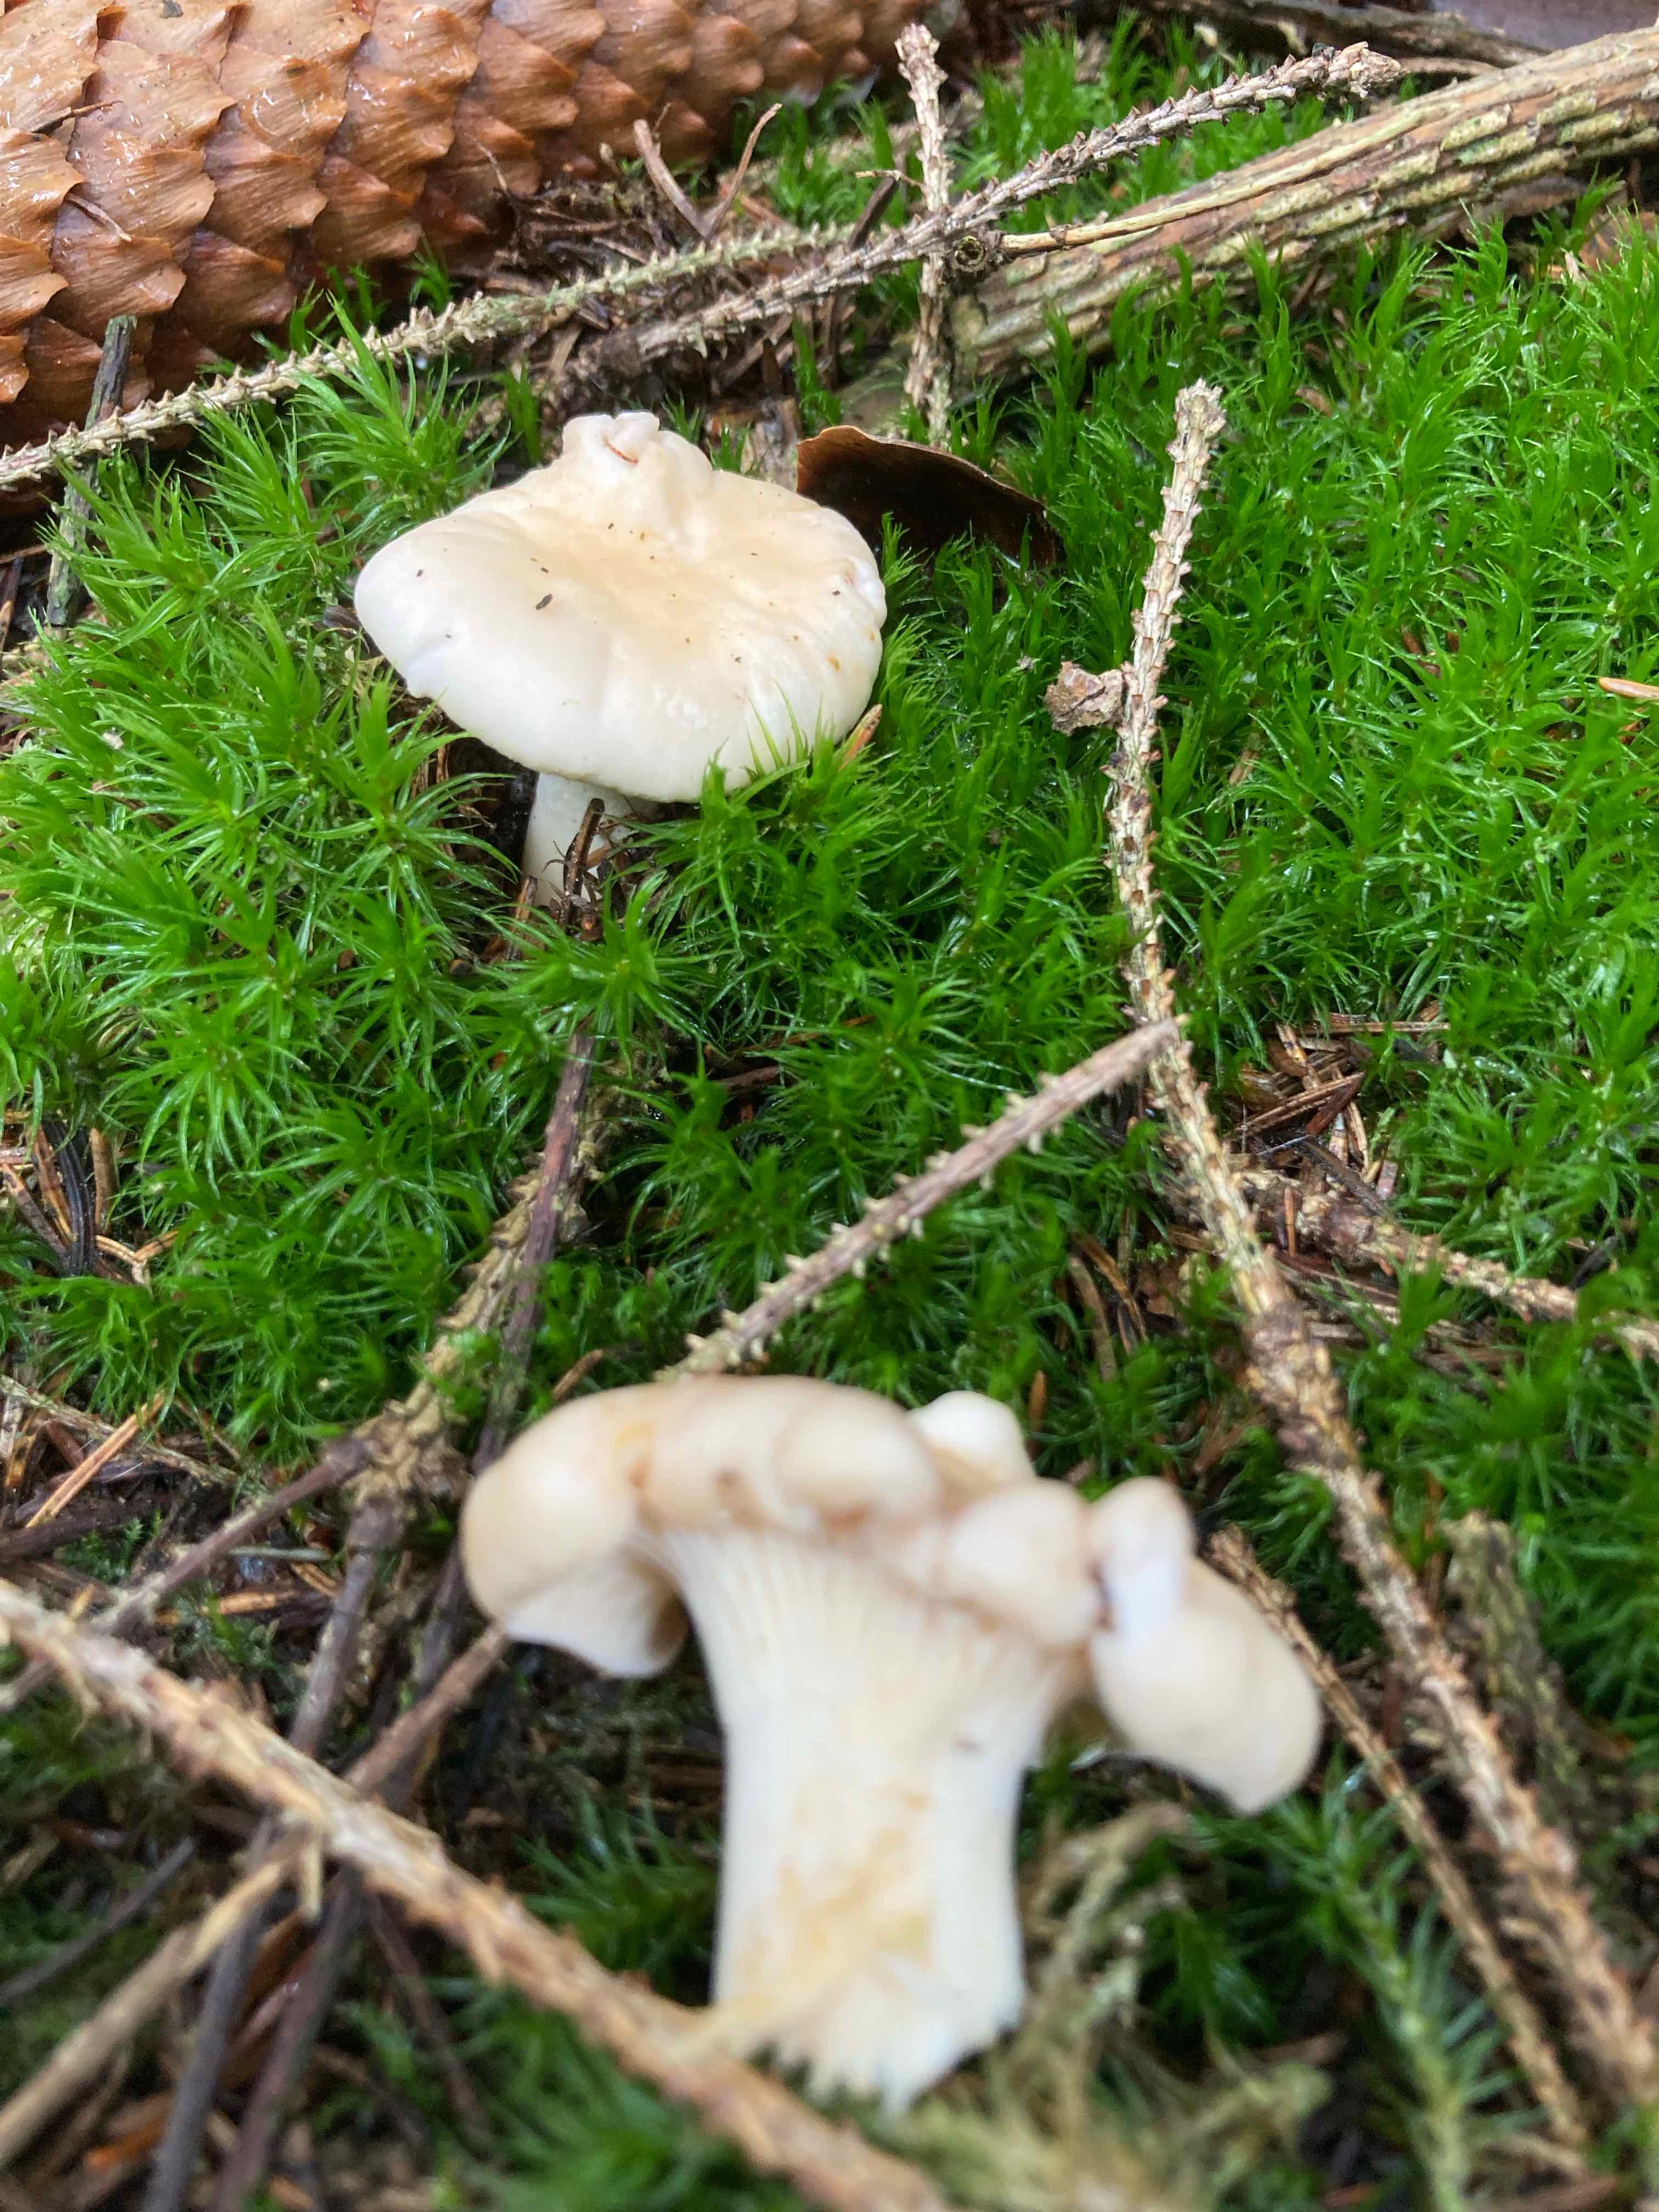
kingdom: Fungi
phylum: Basidiomycota
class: Agaricomycetes
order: Cantharellales
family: Hydnaceae
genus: Cantharellus
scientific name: Cantharellus cibarius
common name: almindelig kantarel
